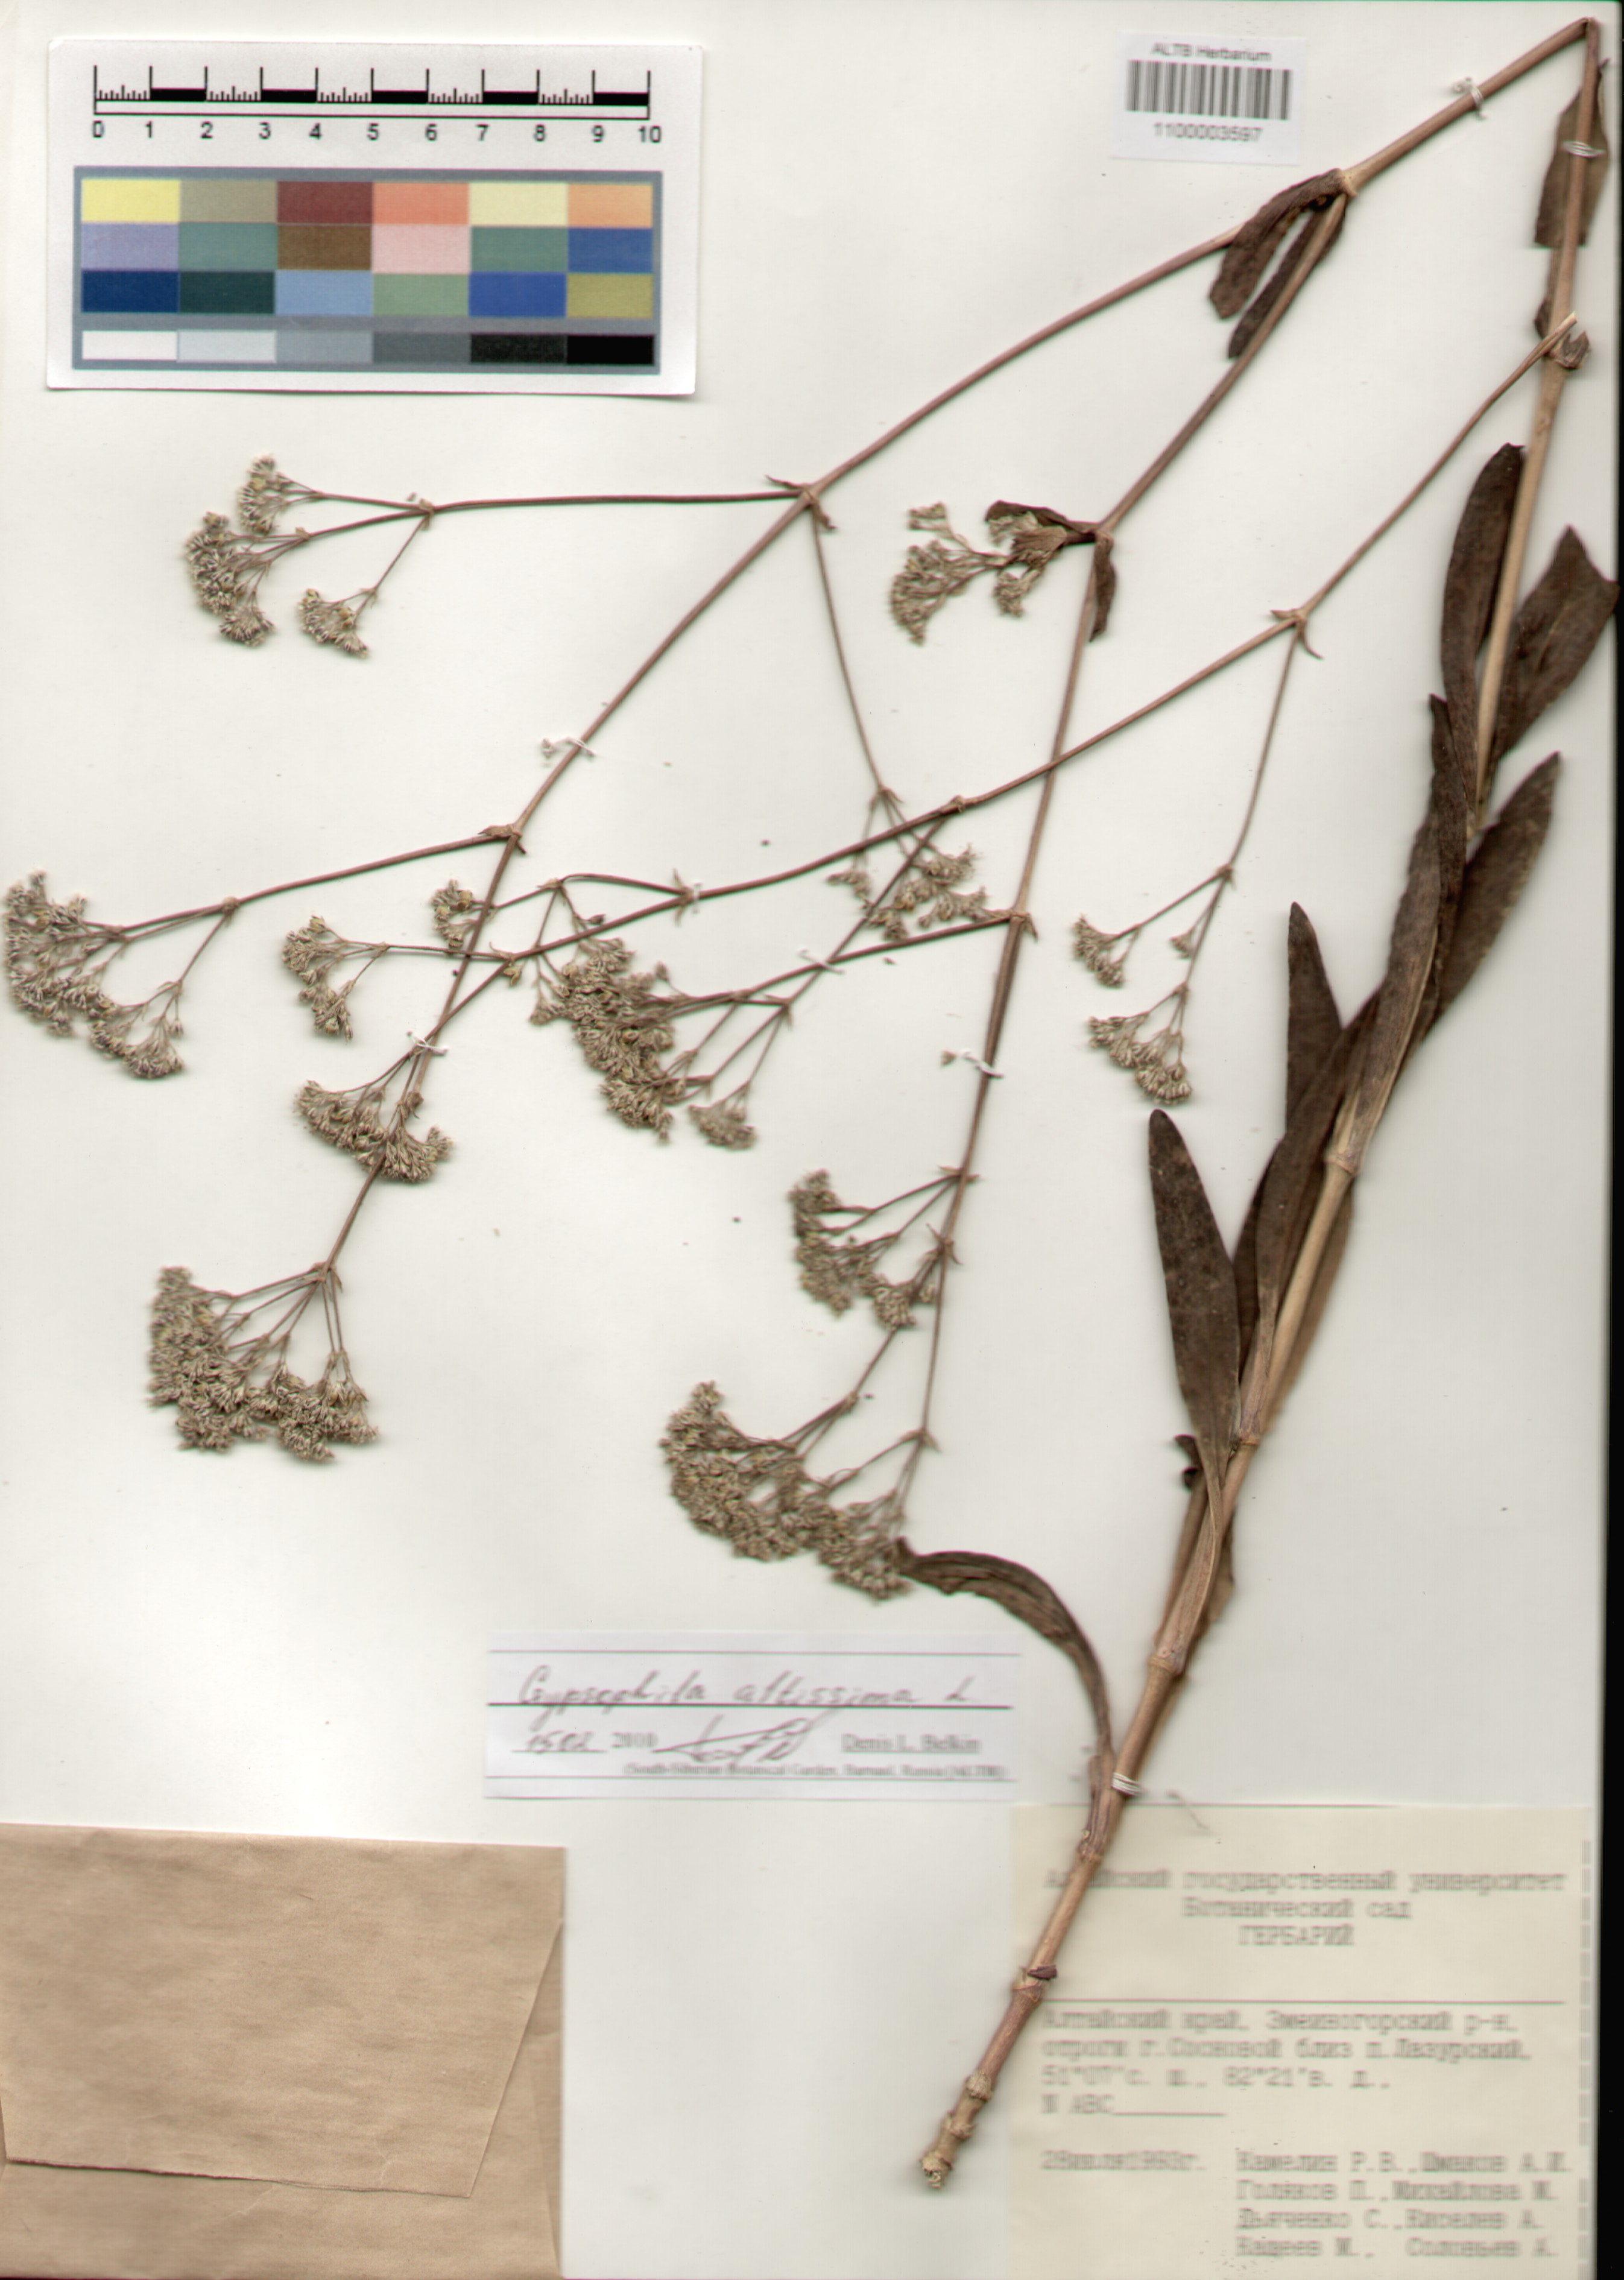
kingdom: Plantae
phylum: Tracheophyta
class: Magnoliopsida
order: Caryophyllales
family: Caryophyllaceae
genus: Gypsophila
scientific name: Gypsophila altissima
